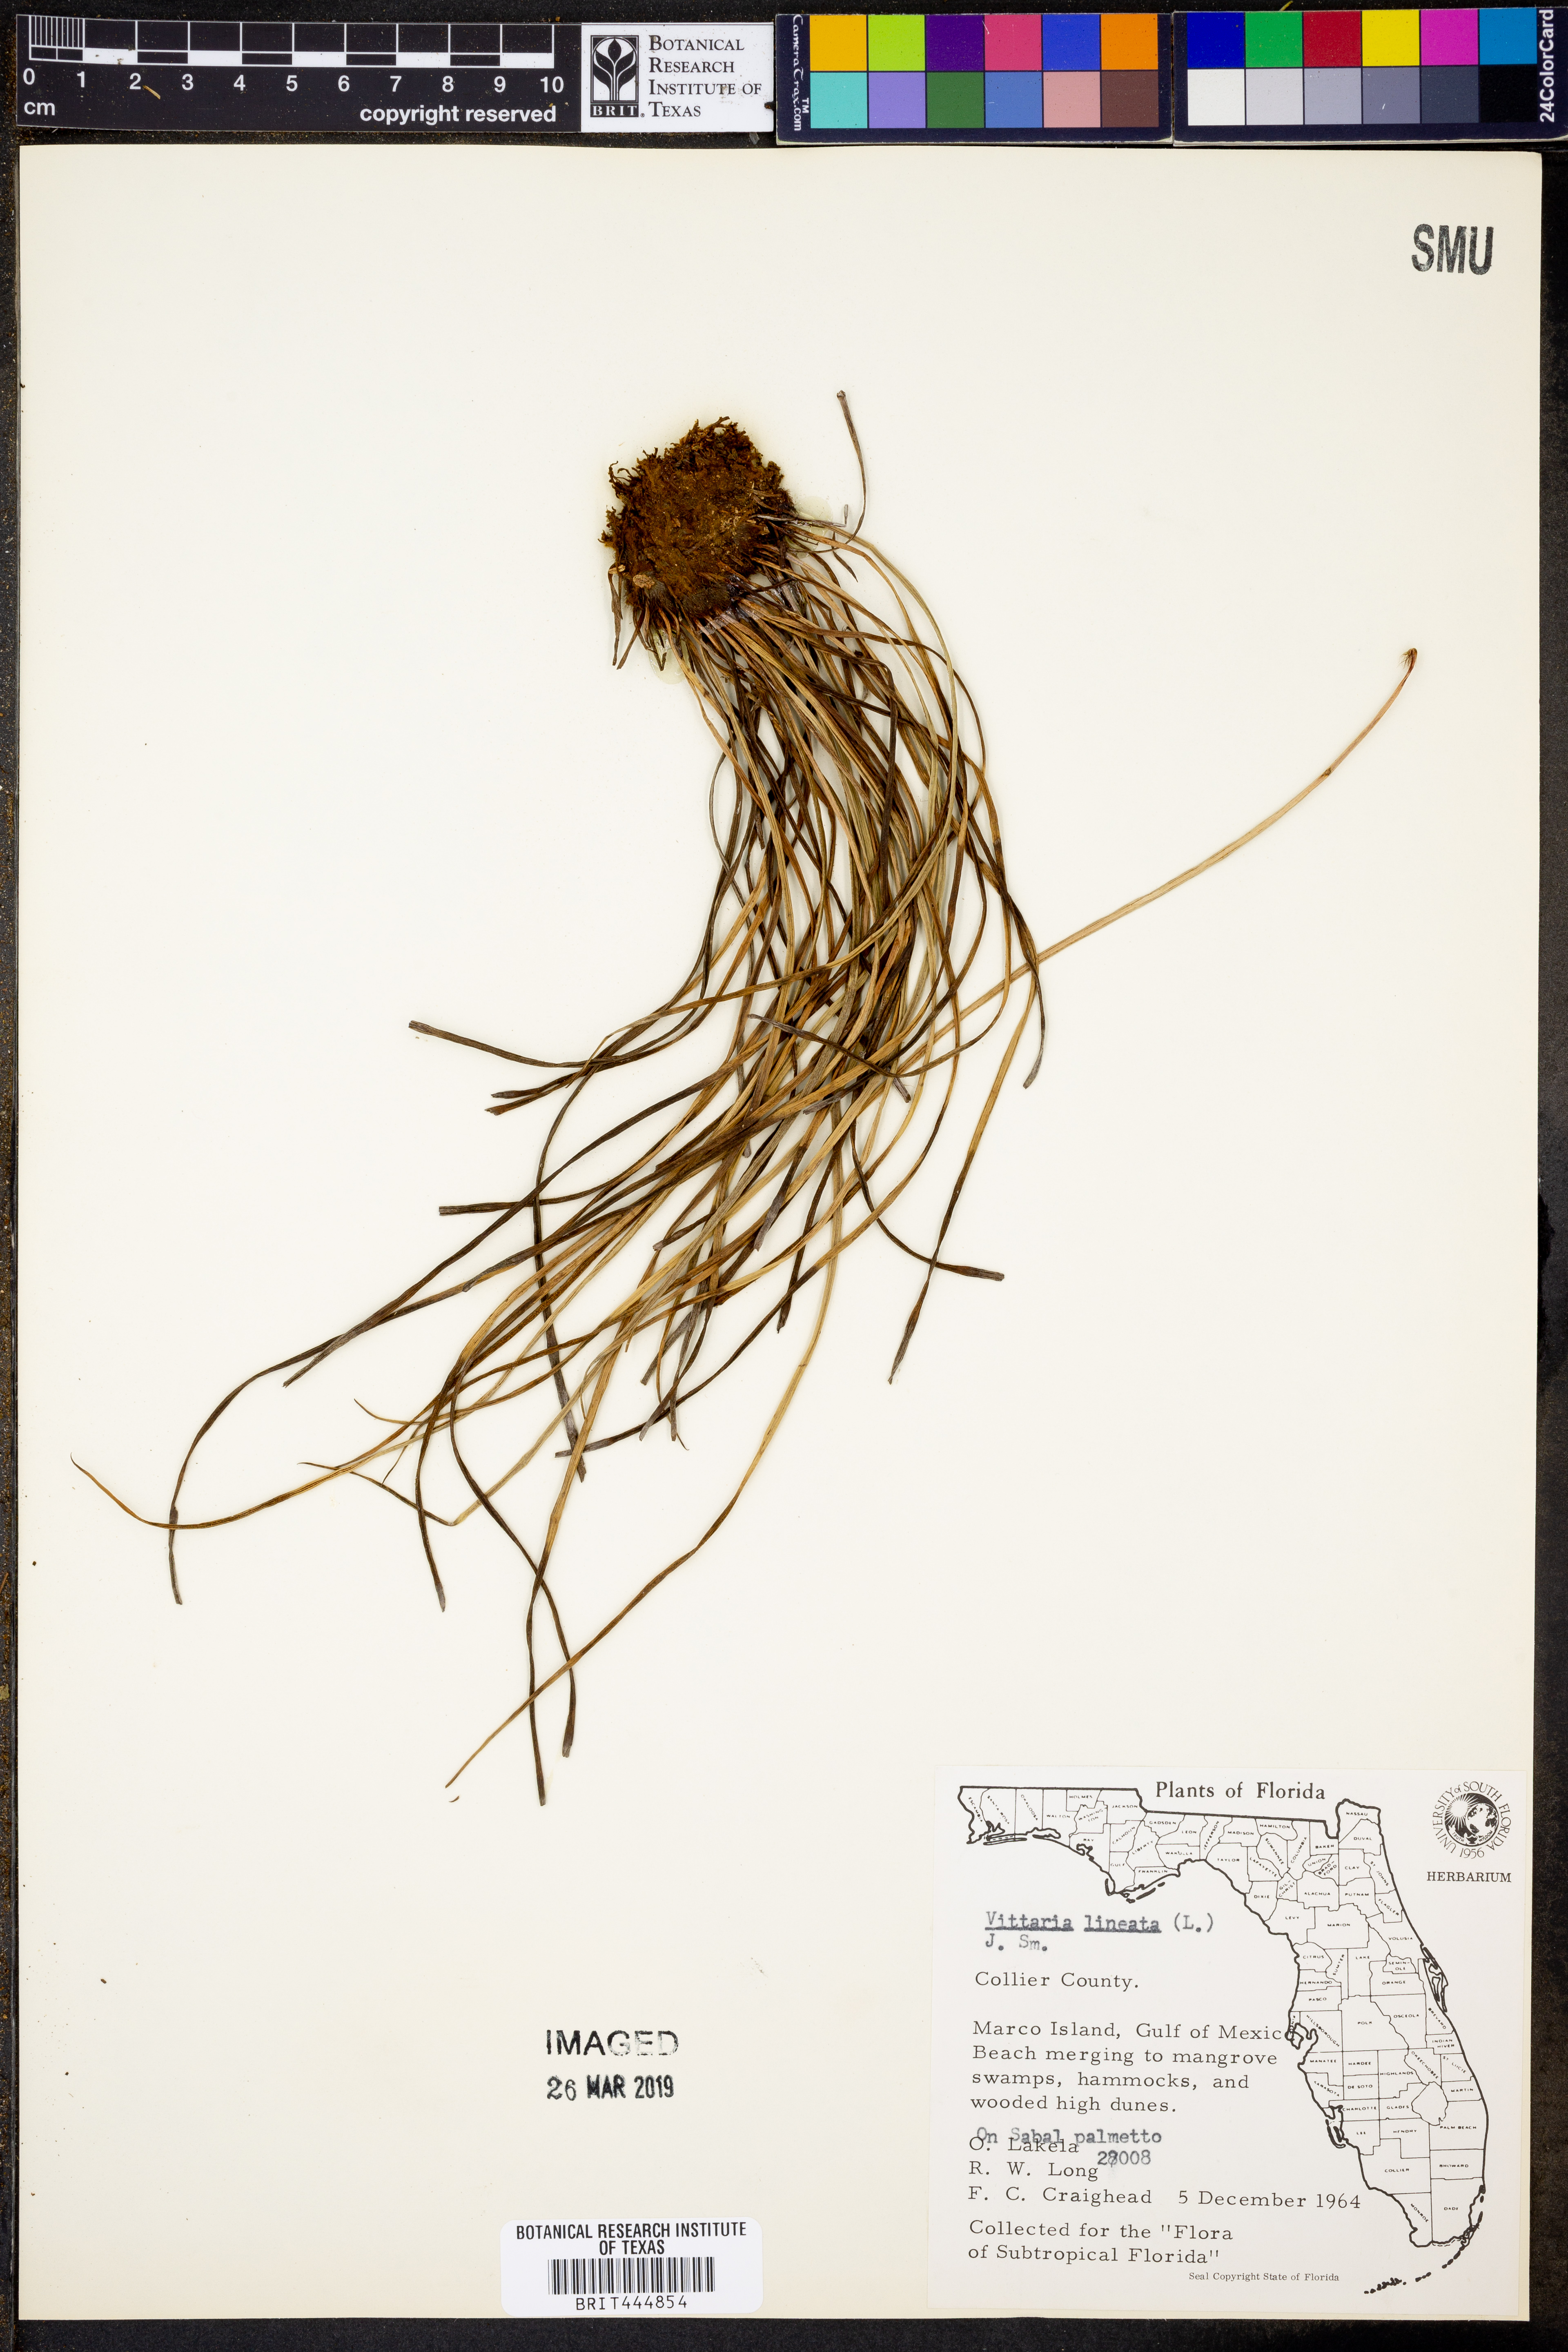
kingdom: Plantae
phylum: Tracheophyta
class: Polypodiopsida
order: Polypodiales
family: Pteridaceae
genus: Vittaria
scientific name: Vittaria lineata
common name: Shoestring fern
